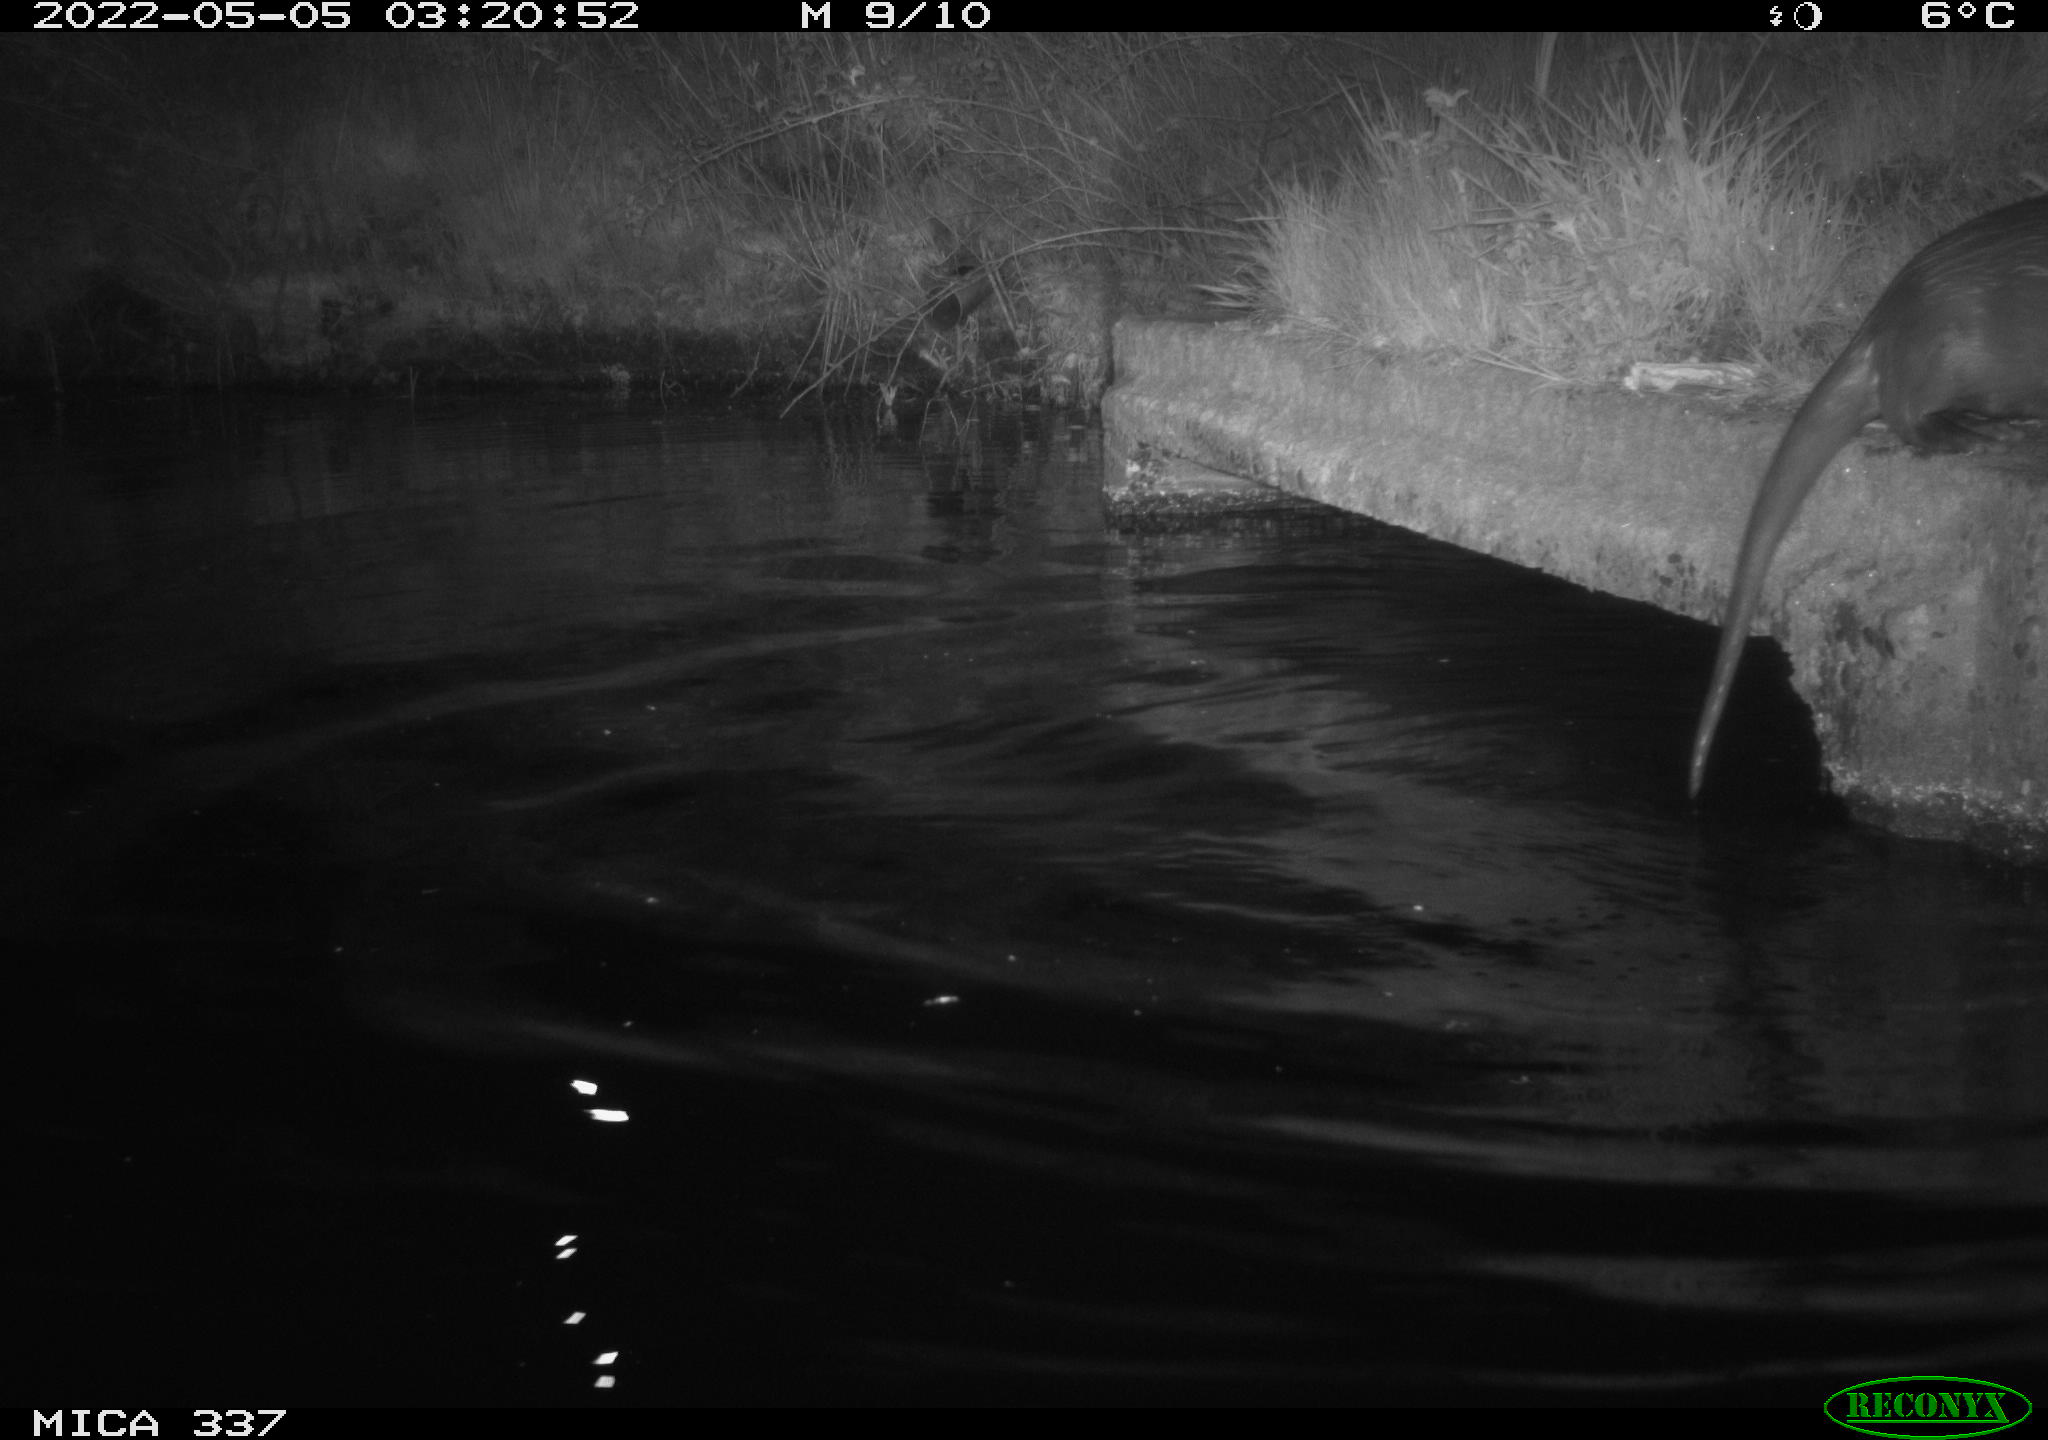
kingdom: Animalia
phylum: Chordata
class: Mammalia
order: Carnivora
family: Mustelidae
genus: Lutra
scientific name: Lutra lutra
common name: European otter
